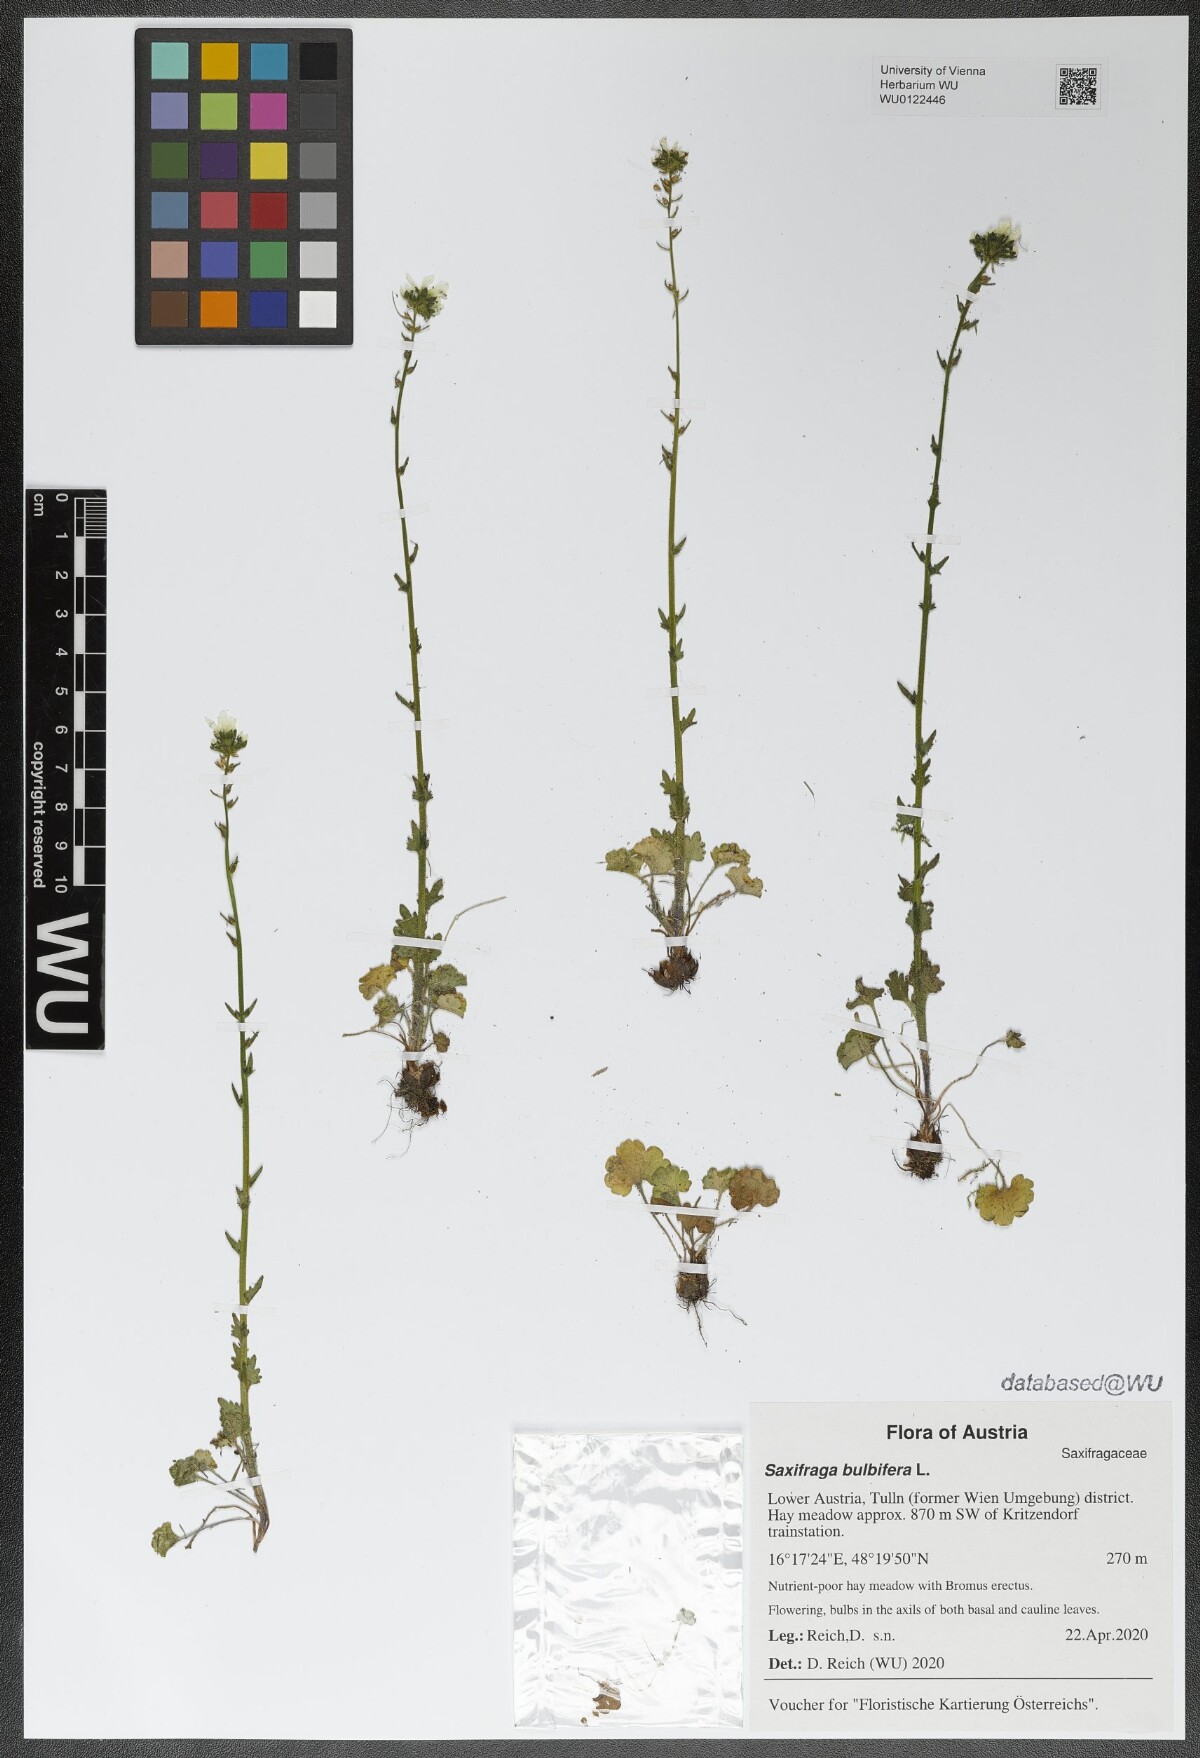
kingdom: Plantae
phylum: Tracheophyta
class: Magnoliopsida
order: Saxifragales
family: Saxifragaceae
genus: Saxifraga
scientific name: Saxifraga bulbifera
